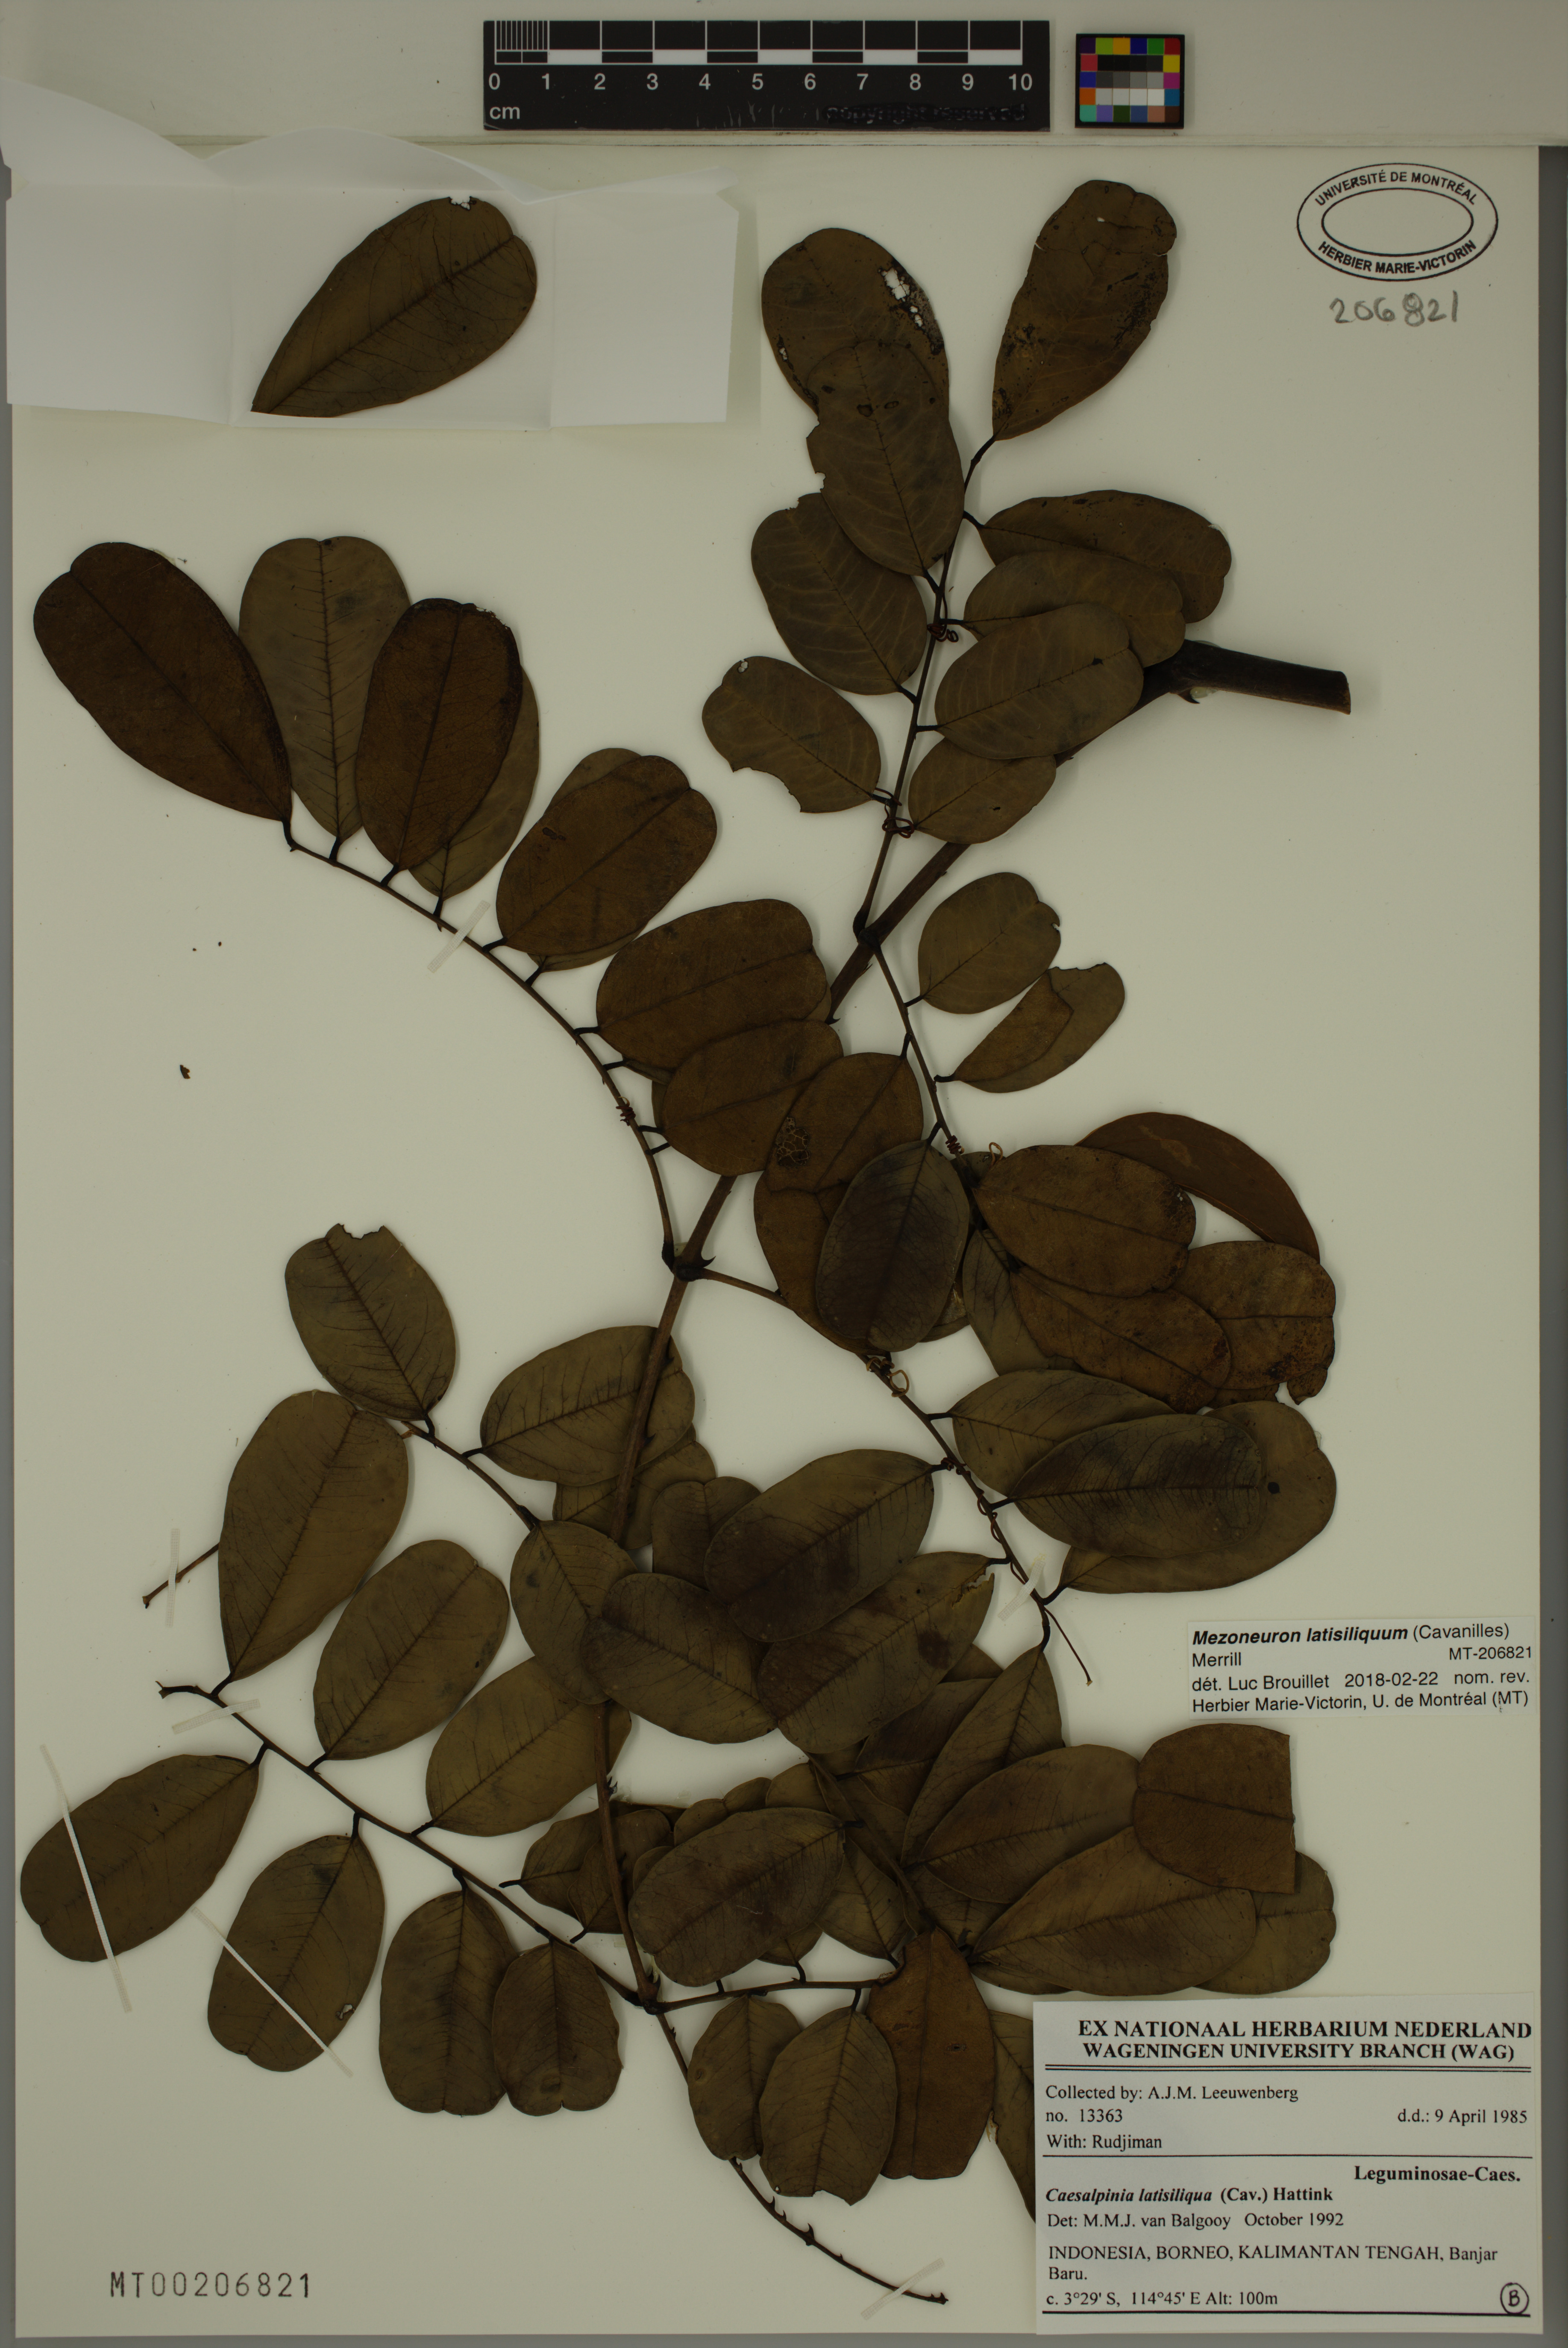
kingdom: Plantae
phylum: Tracheophyta
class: Magnoliopsida
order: Fabales
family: Fabaceae
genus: Mezoneuron
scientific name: Mezoneuron latisiliquum
